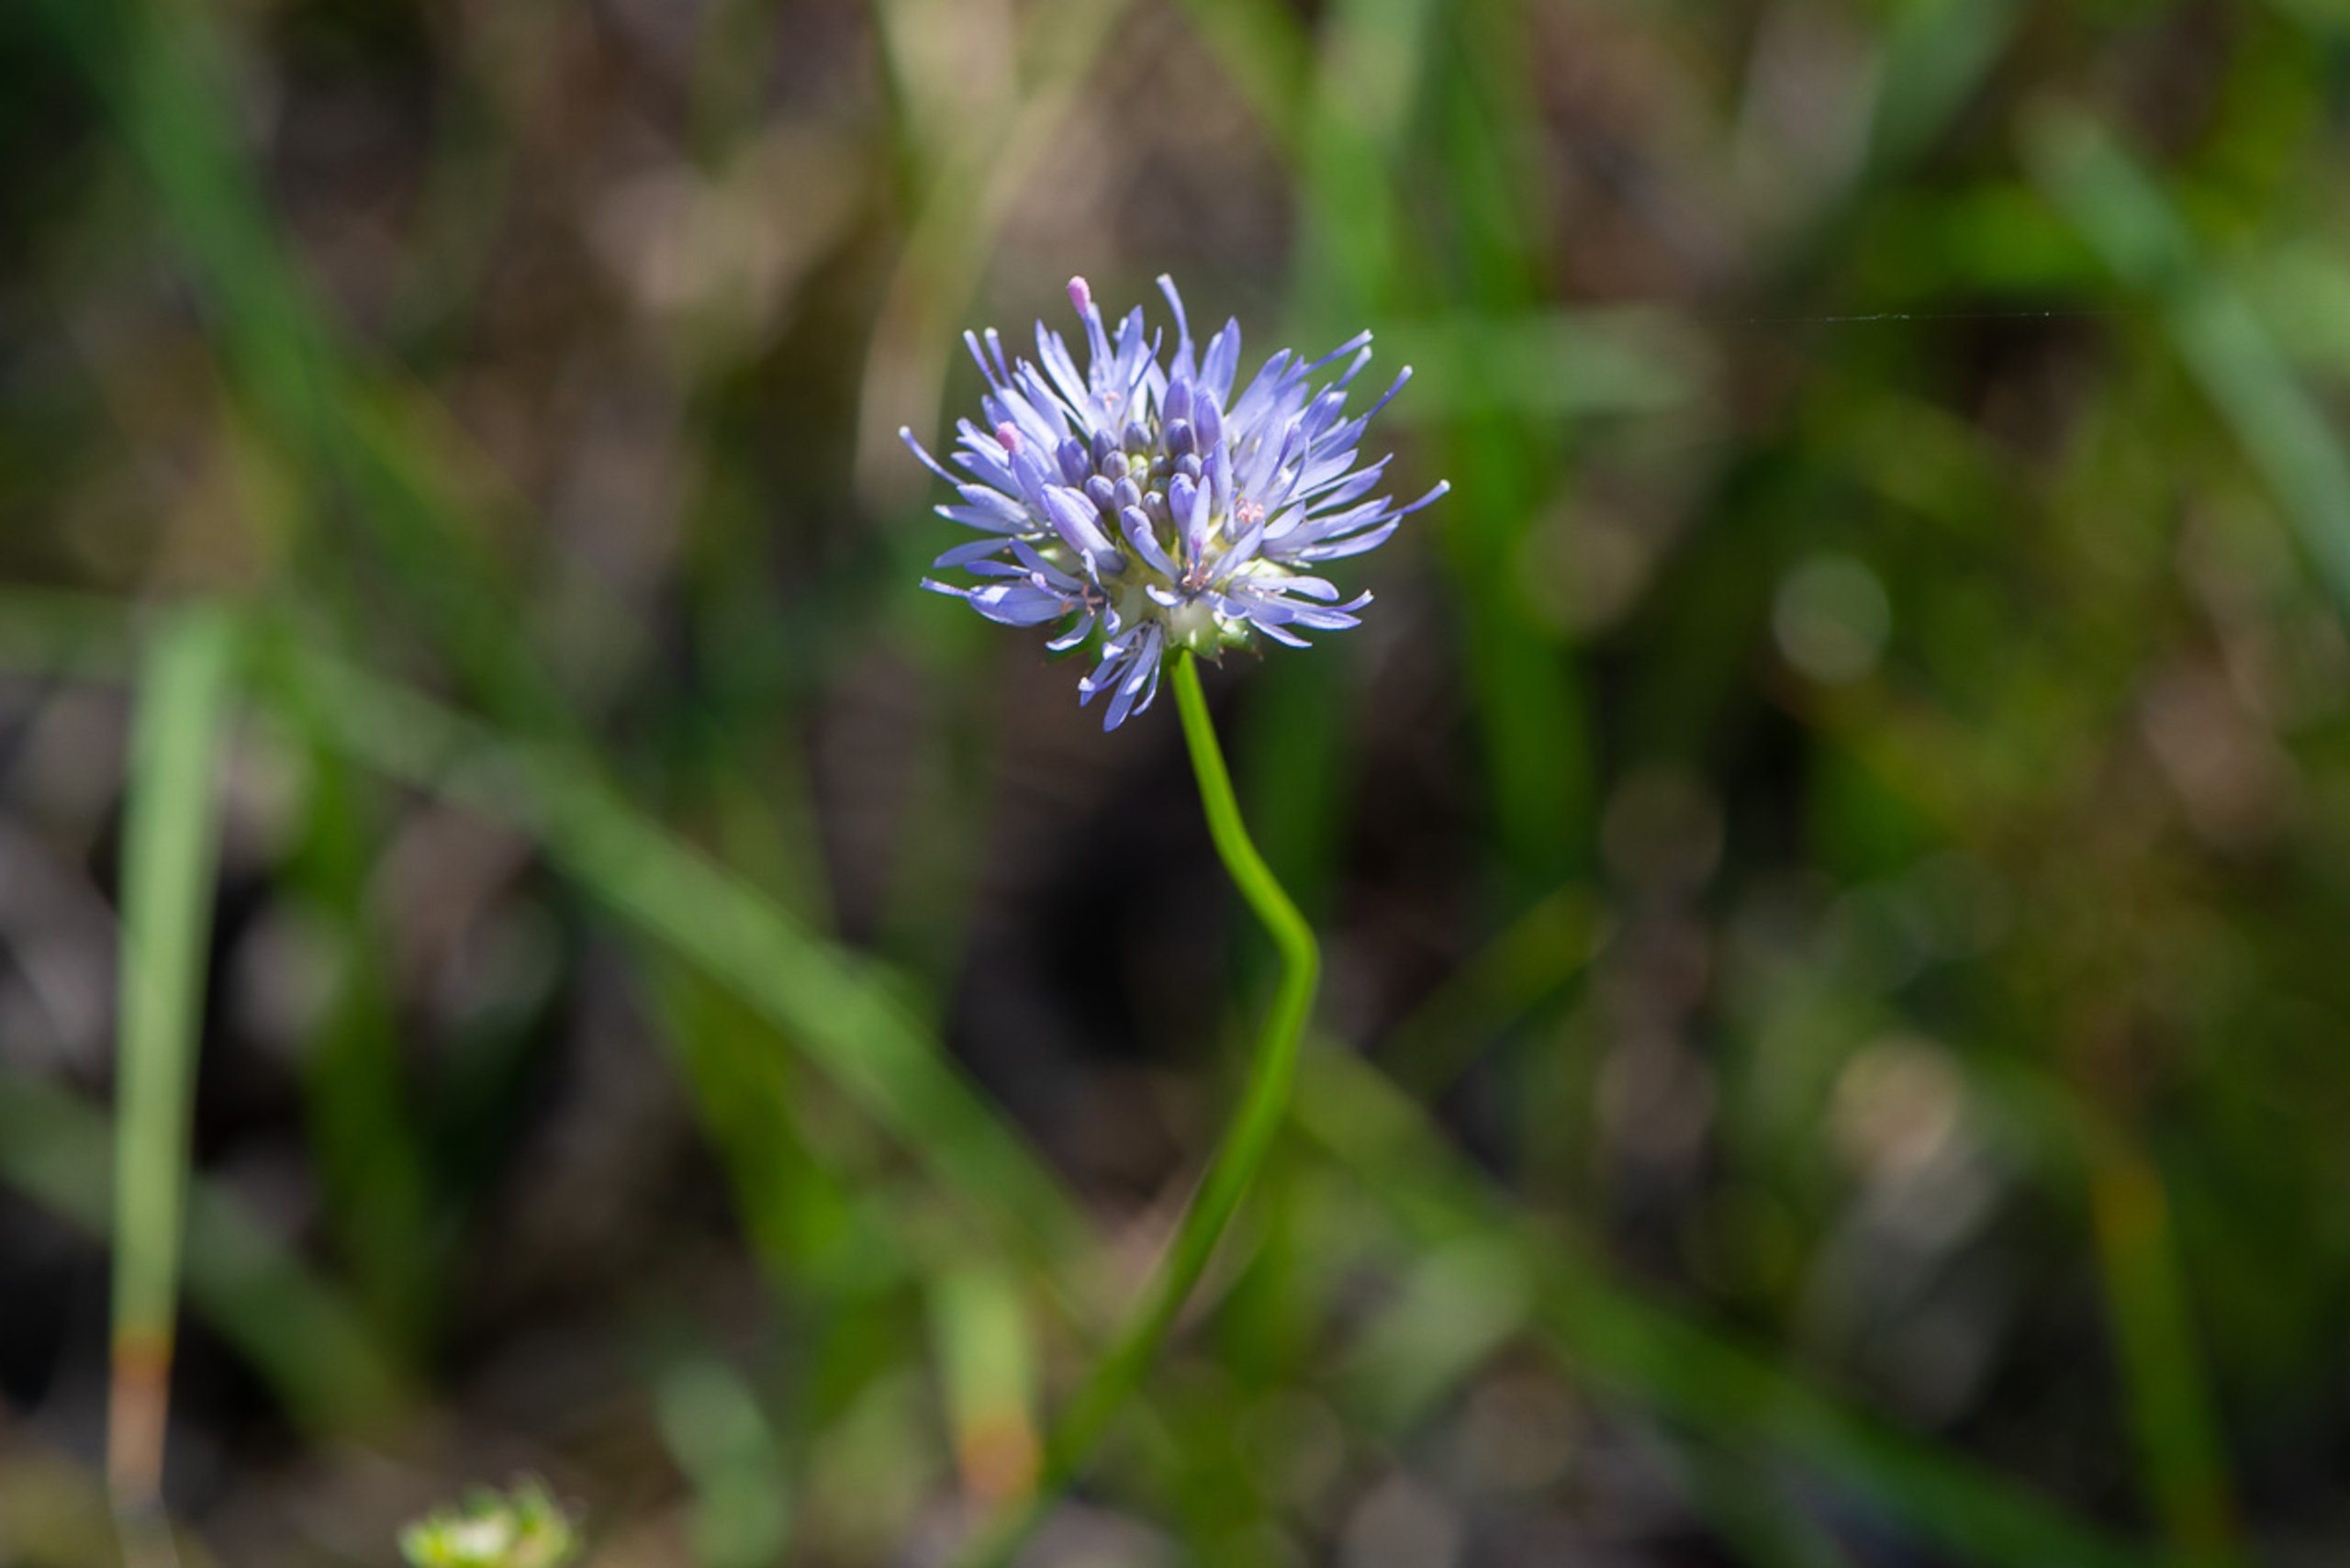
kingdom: Plantae
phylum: Tracheophyta
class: Magnoliopsida
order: Asterales
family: Campanulaceae
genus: Jasione
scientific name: Jasione montana
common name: Blåmunke
